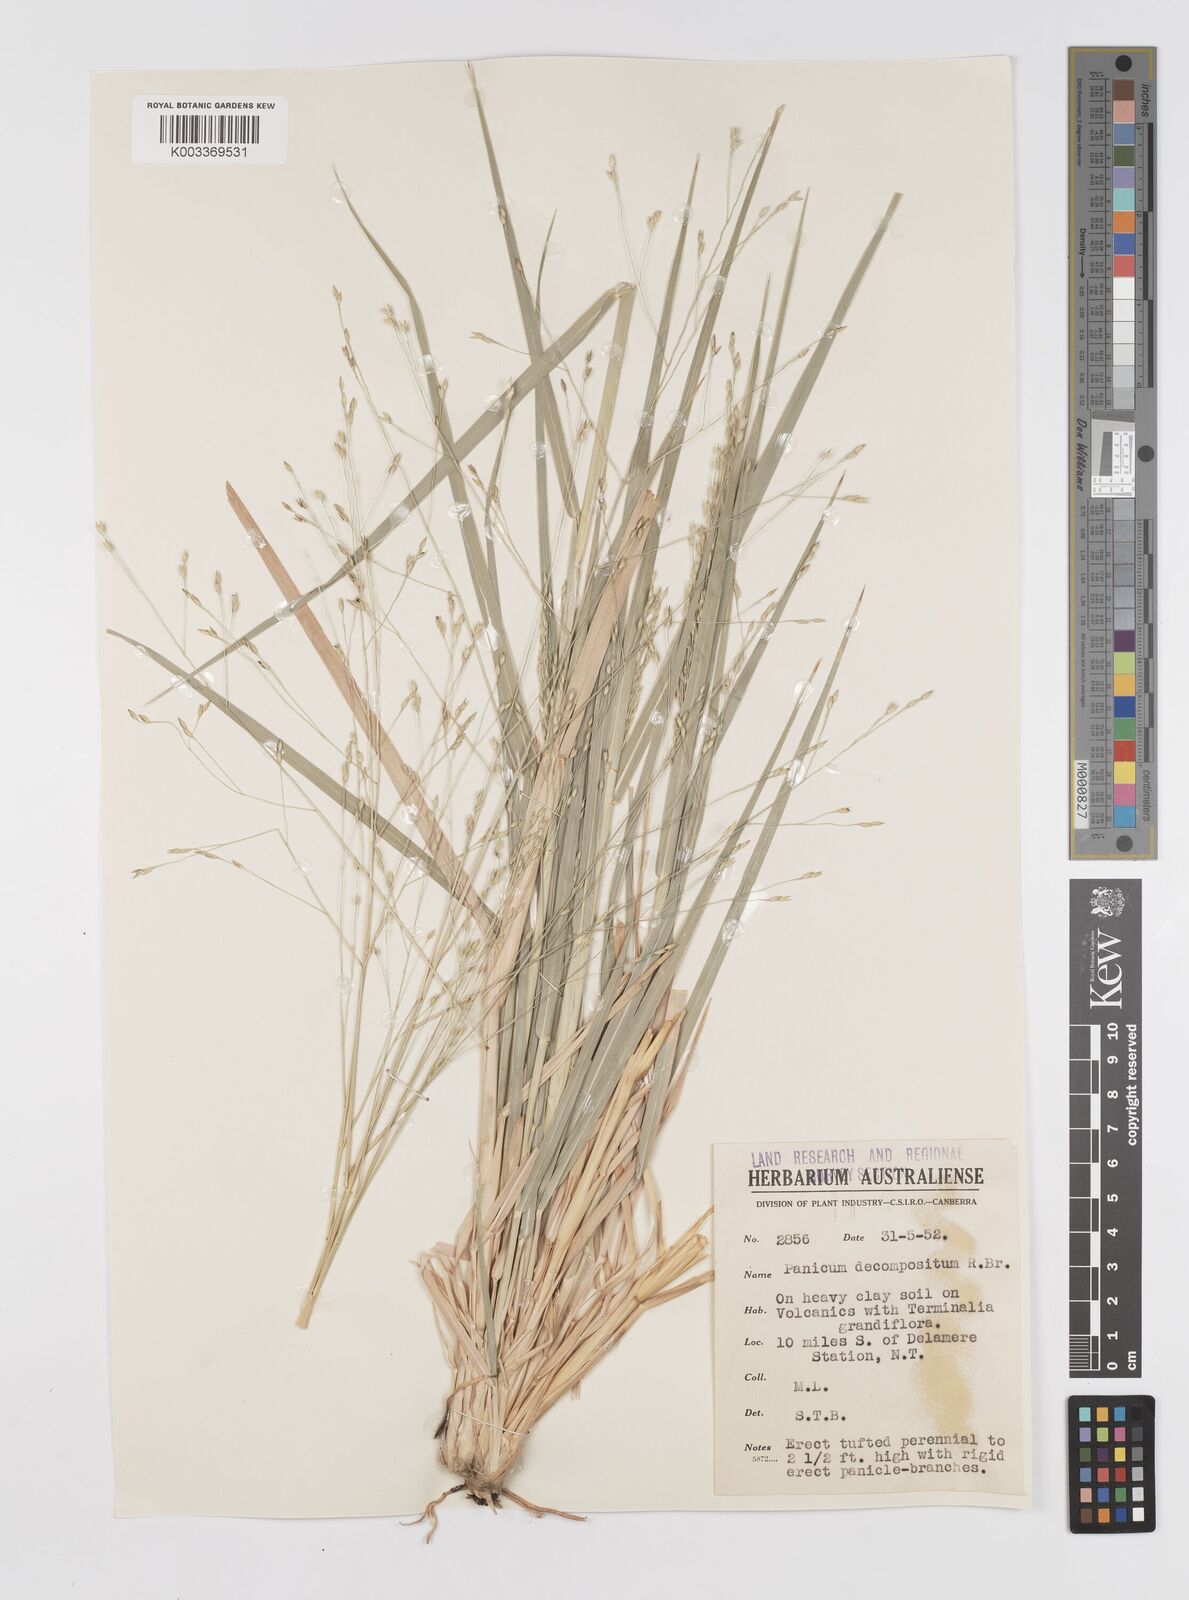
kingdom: Plantae
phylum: Tracheophyta
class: Liliopsida
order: Poales
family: Poaceae
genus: Panicum
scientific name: Panicum decompositum
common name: Australian millet
